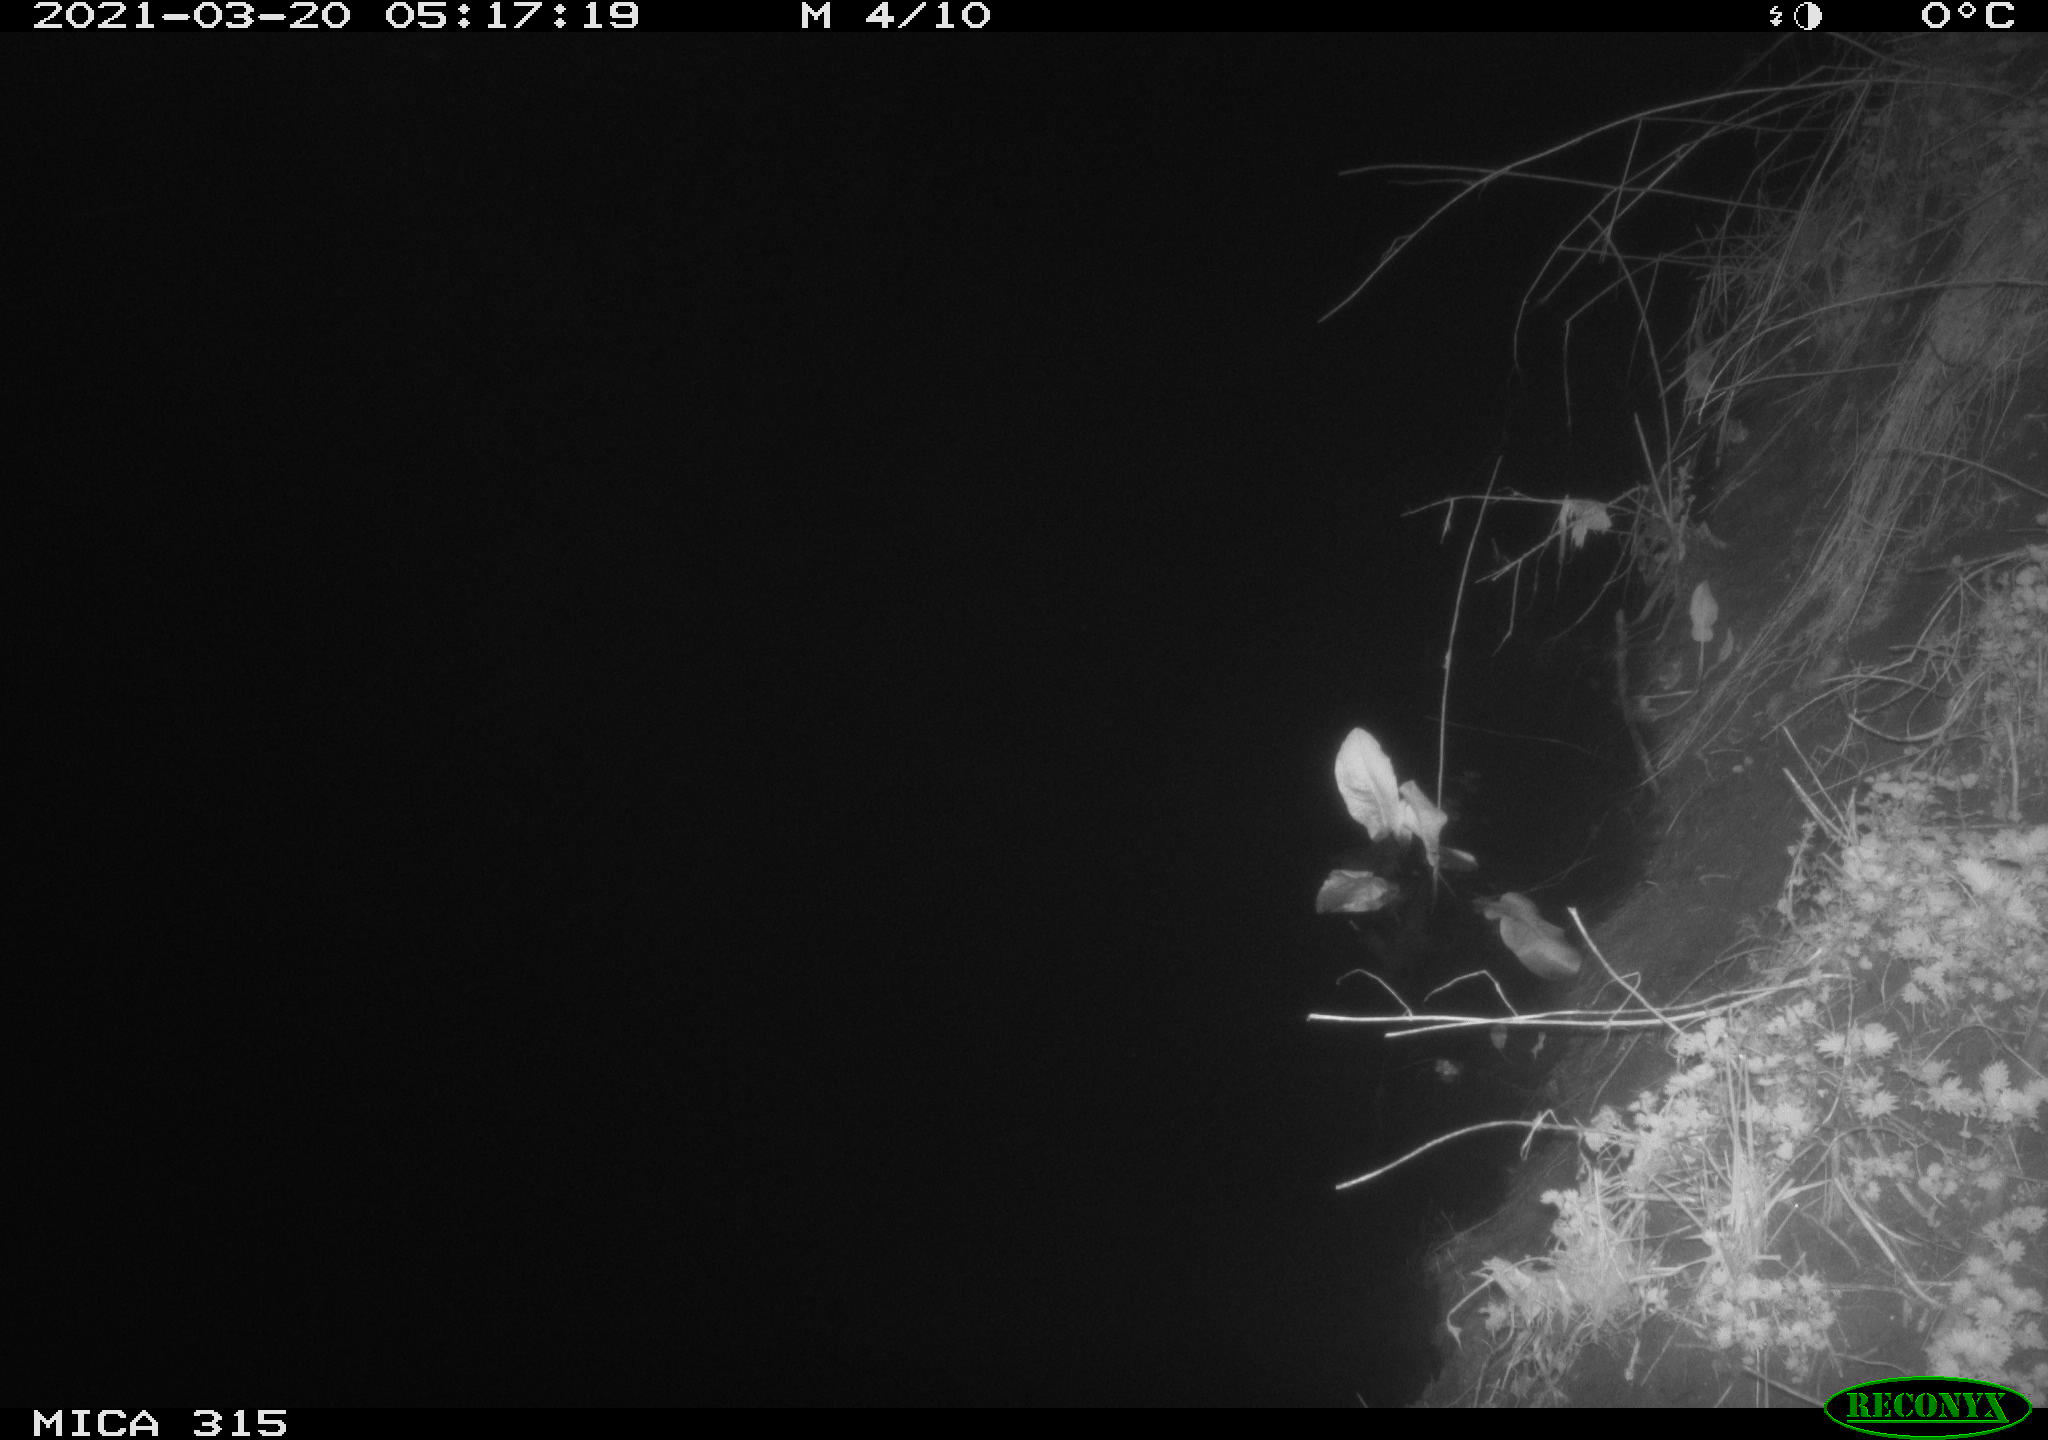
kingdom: Animalia
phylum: Chordata
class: Mammalia
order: Rodentia
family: Muridae
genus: Rattus
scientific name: Rattus norvegicus
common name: Brown rat
